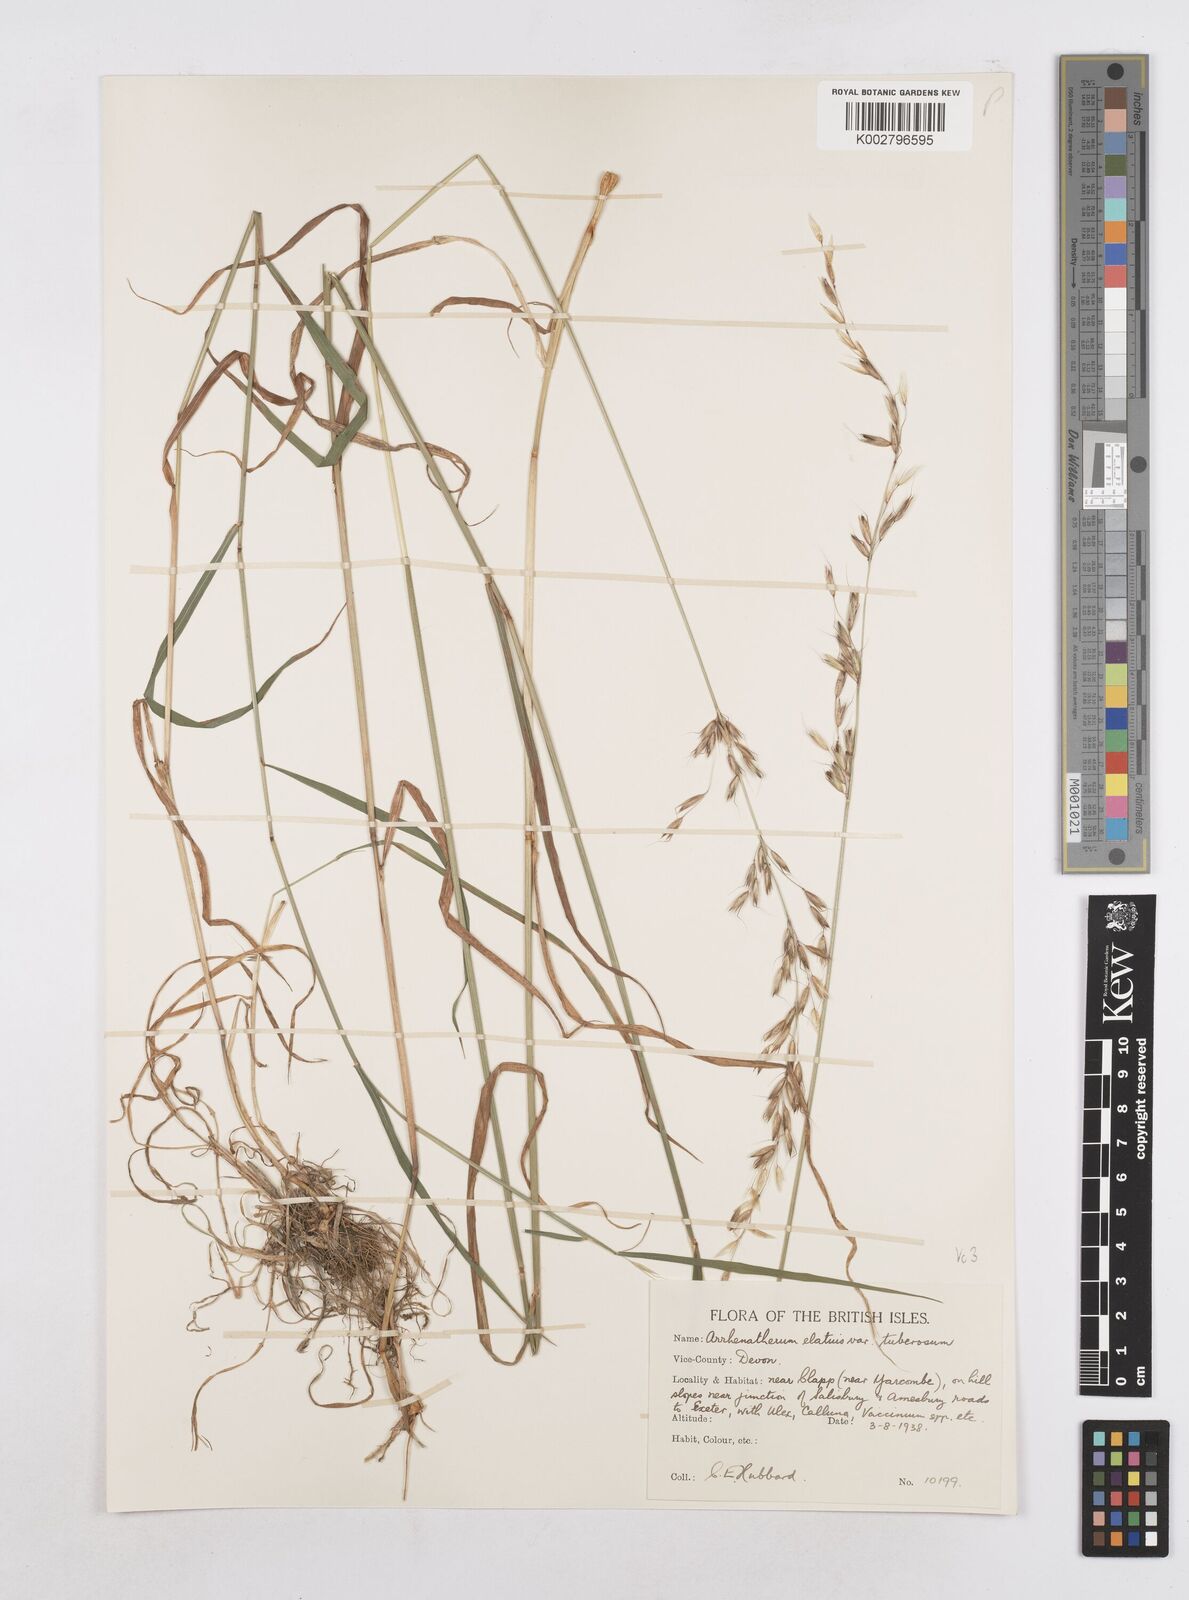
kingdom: Plantae
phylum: Tracheophyta
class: Liliopsida
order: Poales
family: Poaceae
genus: Arrhenatherum
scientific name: Arrhenatherum elatius
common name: Tall oatgrass
